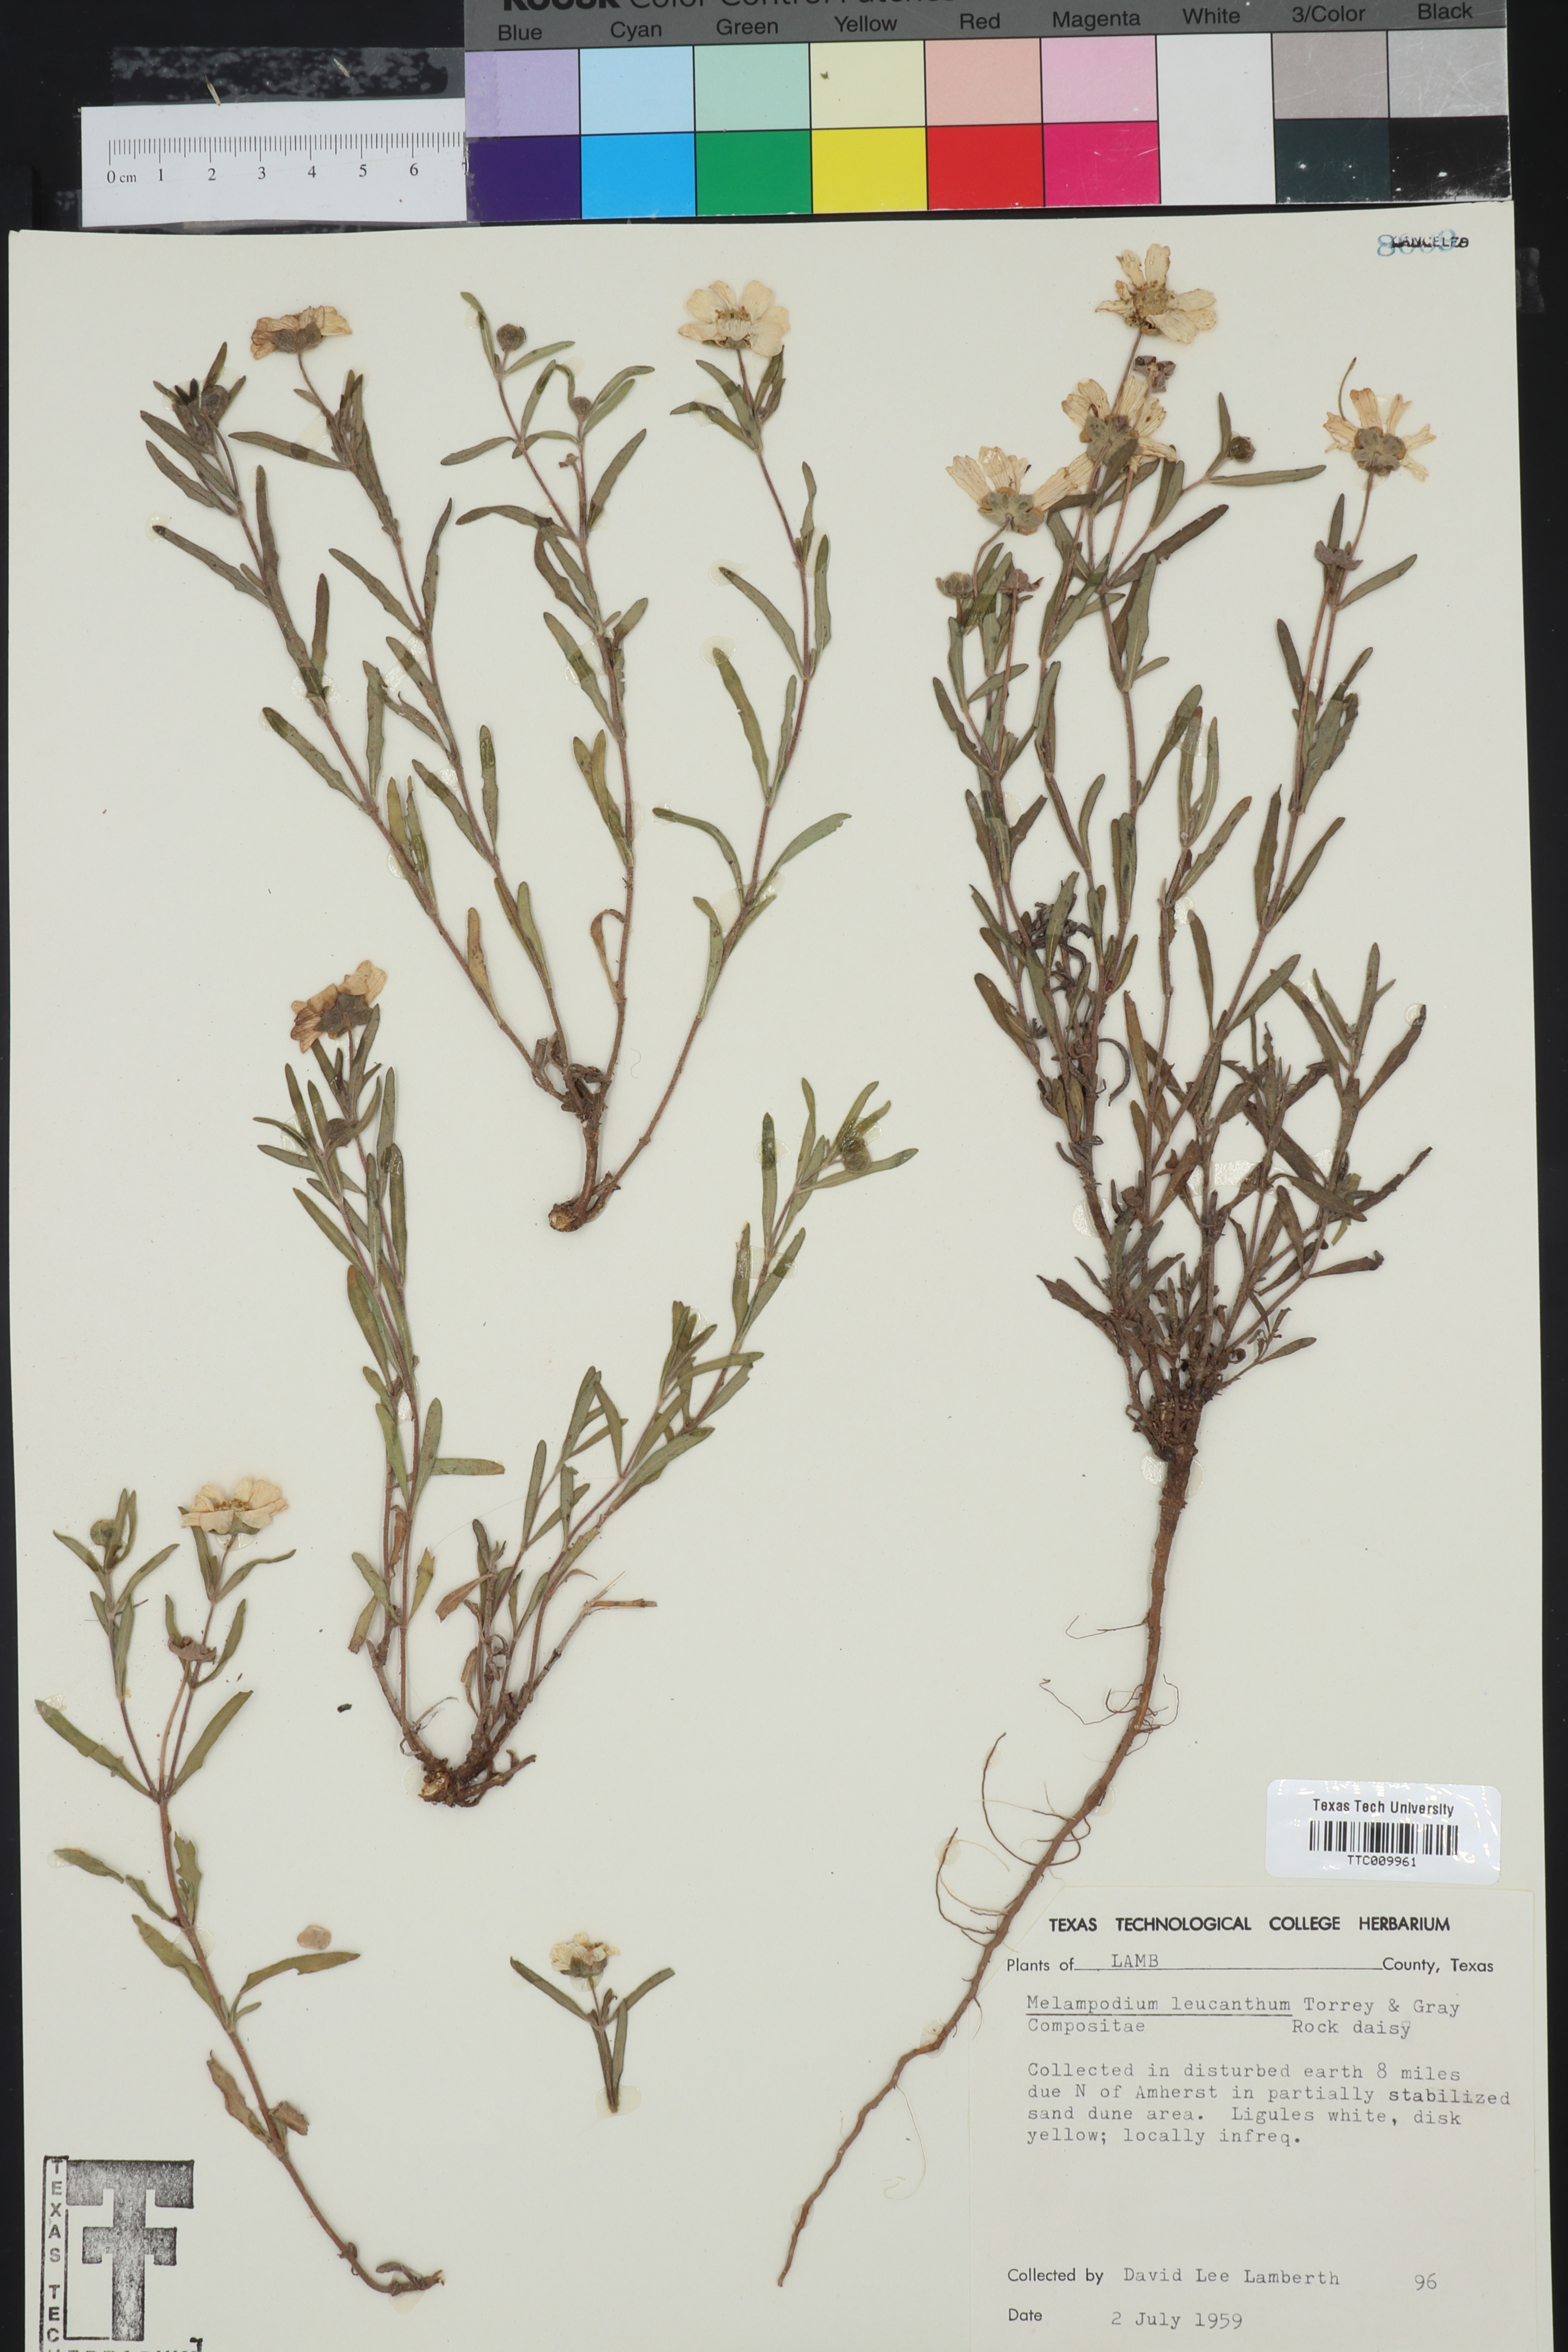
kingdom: Plantae
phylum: Tracheophyta
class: Magnoliopsida
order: Asterales
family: Asteraceae
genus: Melampodium
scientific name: Melampodium leucanthum
